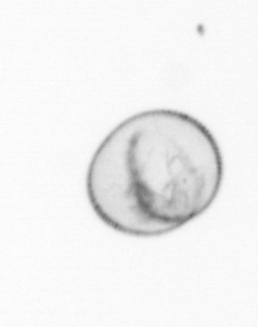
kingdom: Chromista
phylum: Myzozoa
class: Dinophyceae
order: Noctilucales
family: Noctilucaceae
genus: Noctiluca
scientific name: Noctiluca scintillans
